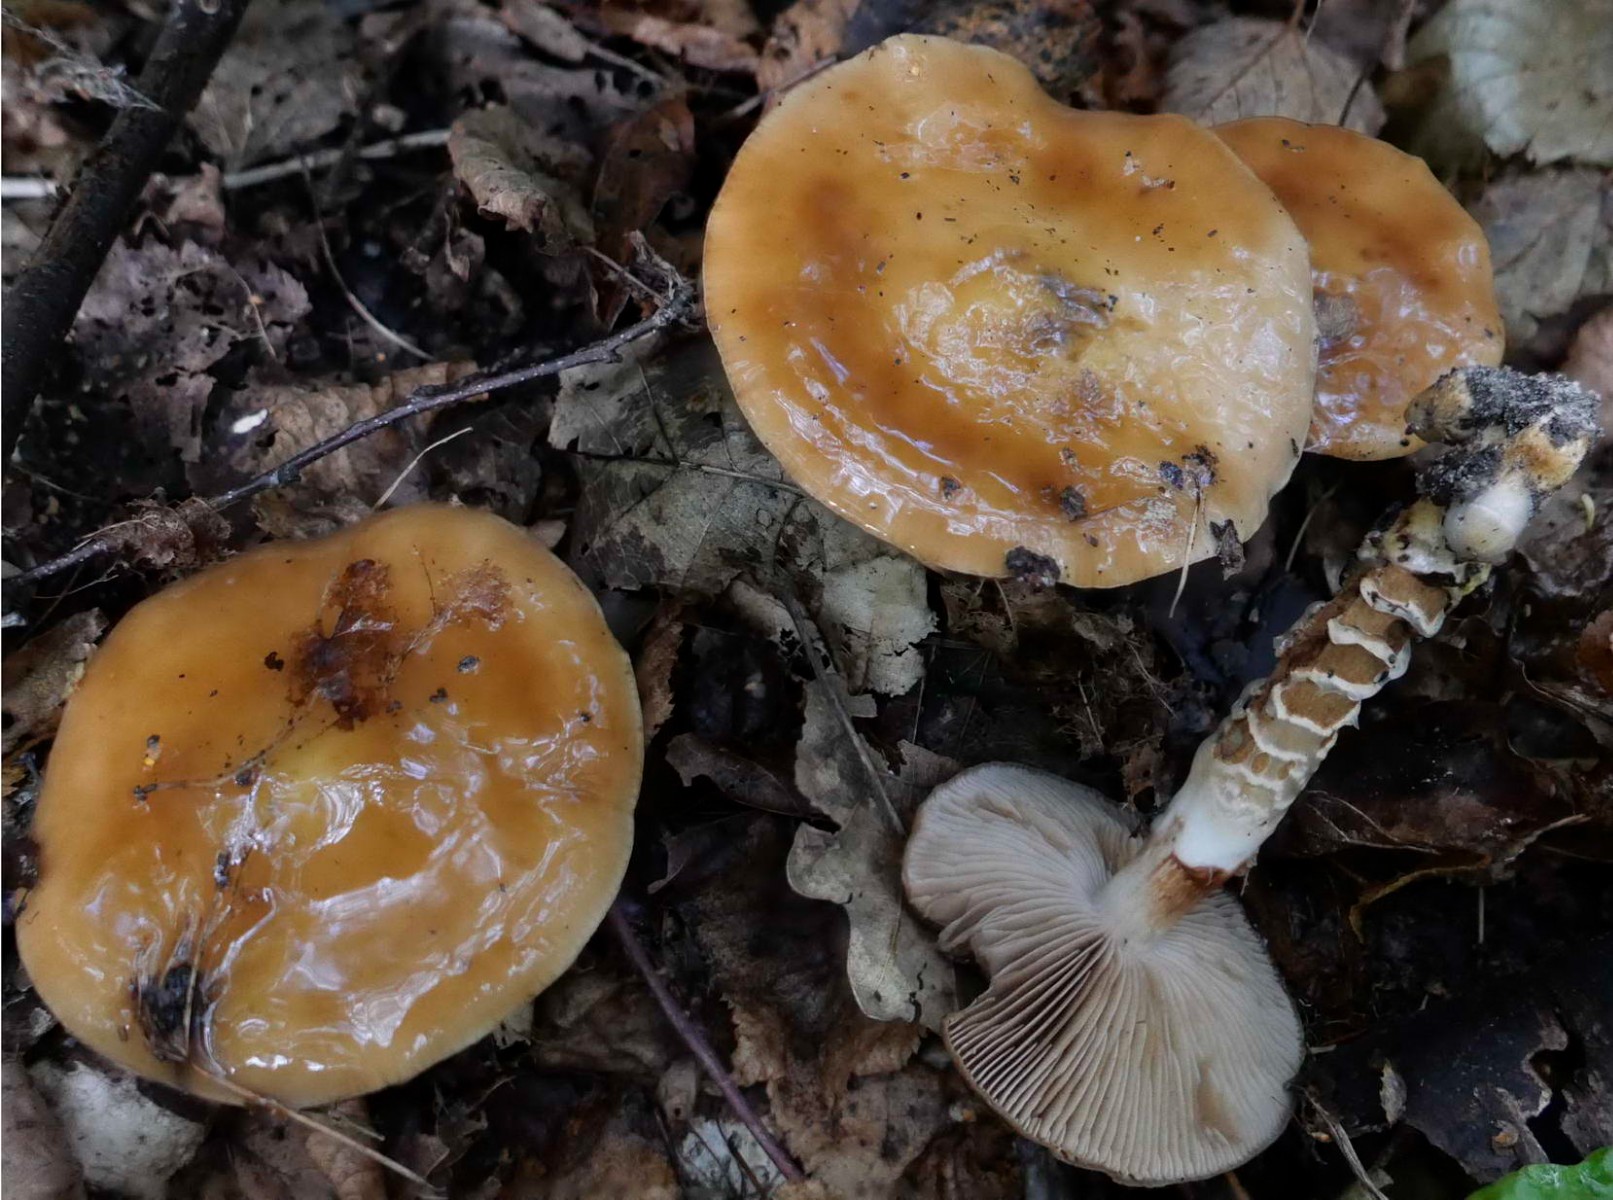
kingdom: Fungi
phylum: Basidiomycota
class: Agaricomycetes
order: Agaricales
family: Cortinariaceae
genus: Cortinarius
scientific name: Cortinarius trivialis
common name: Girdled webcap
